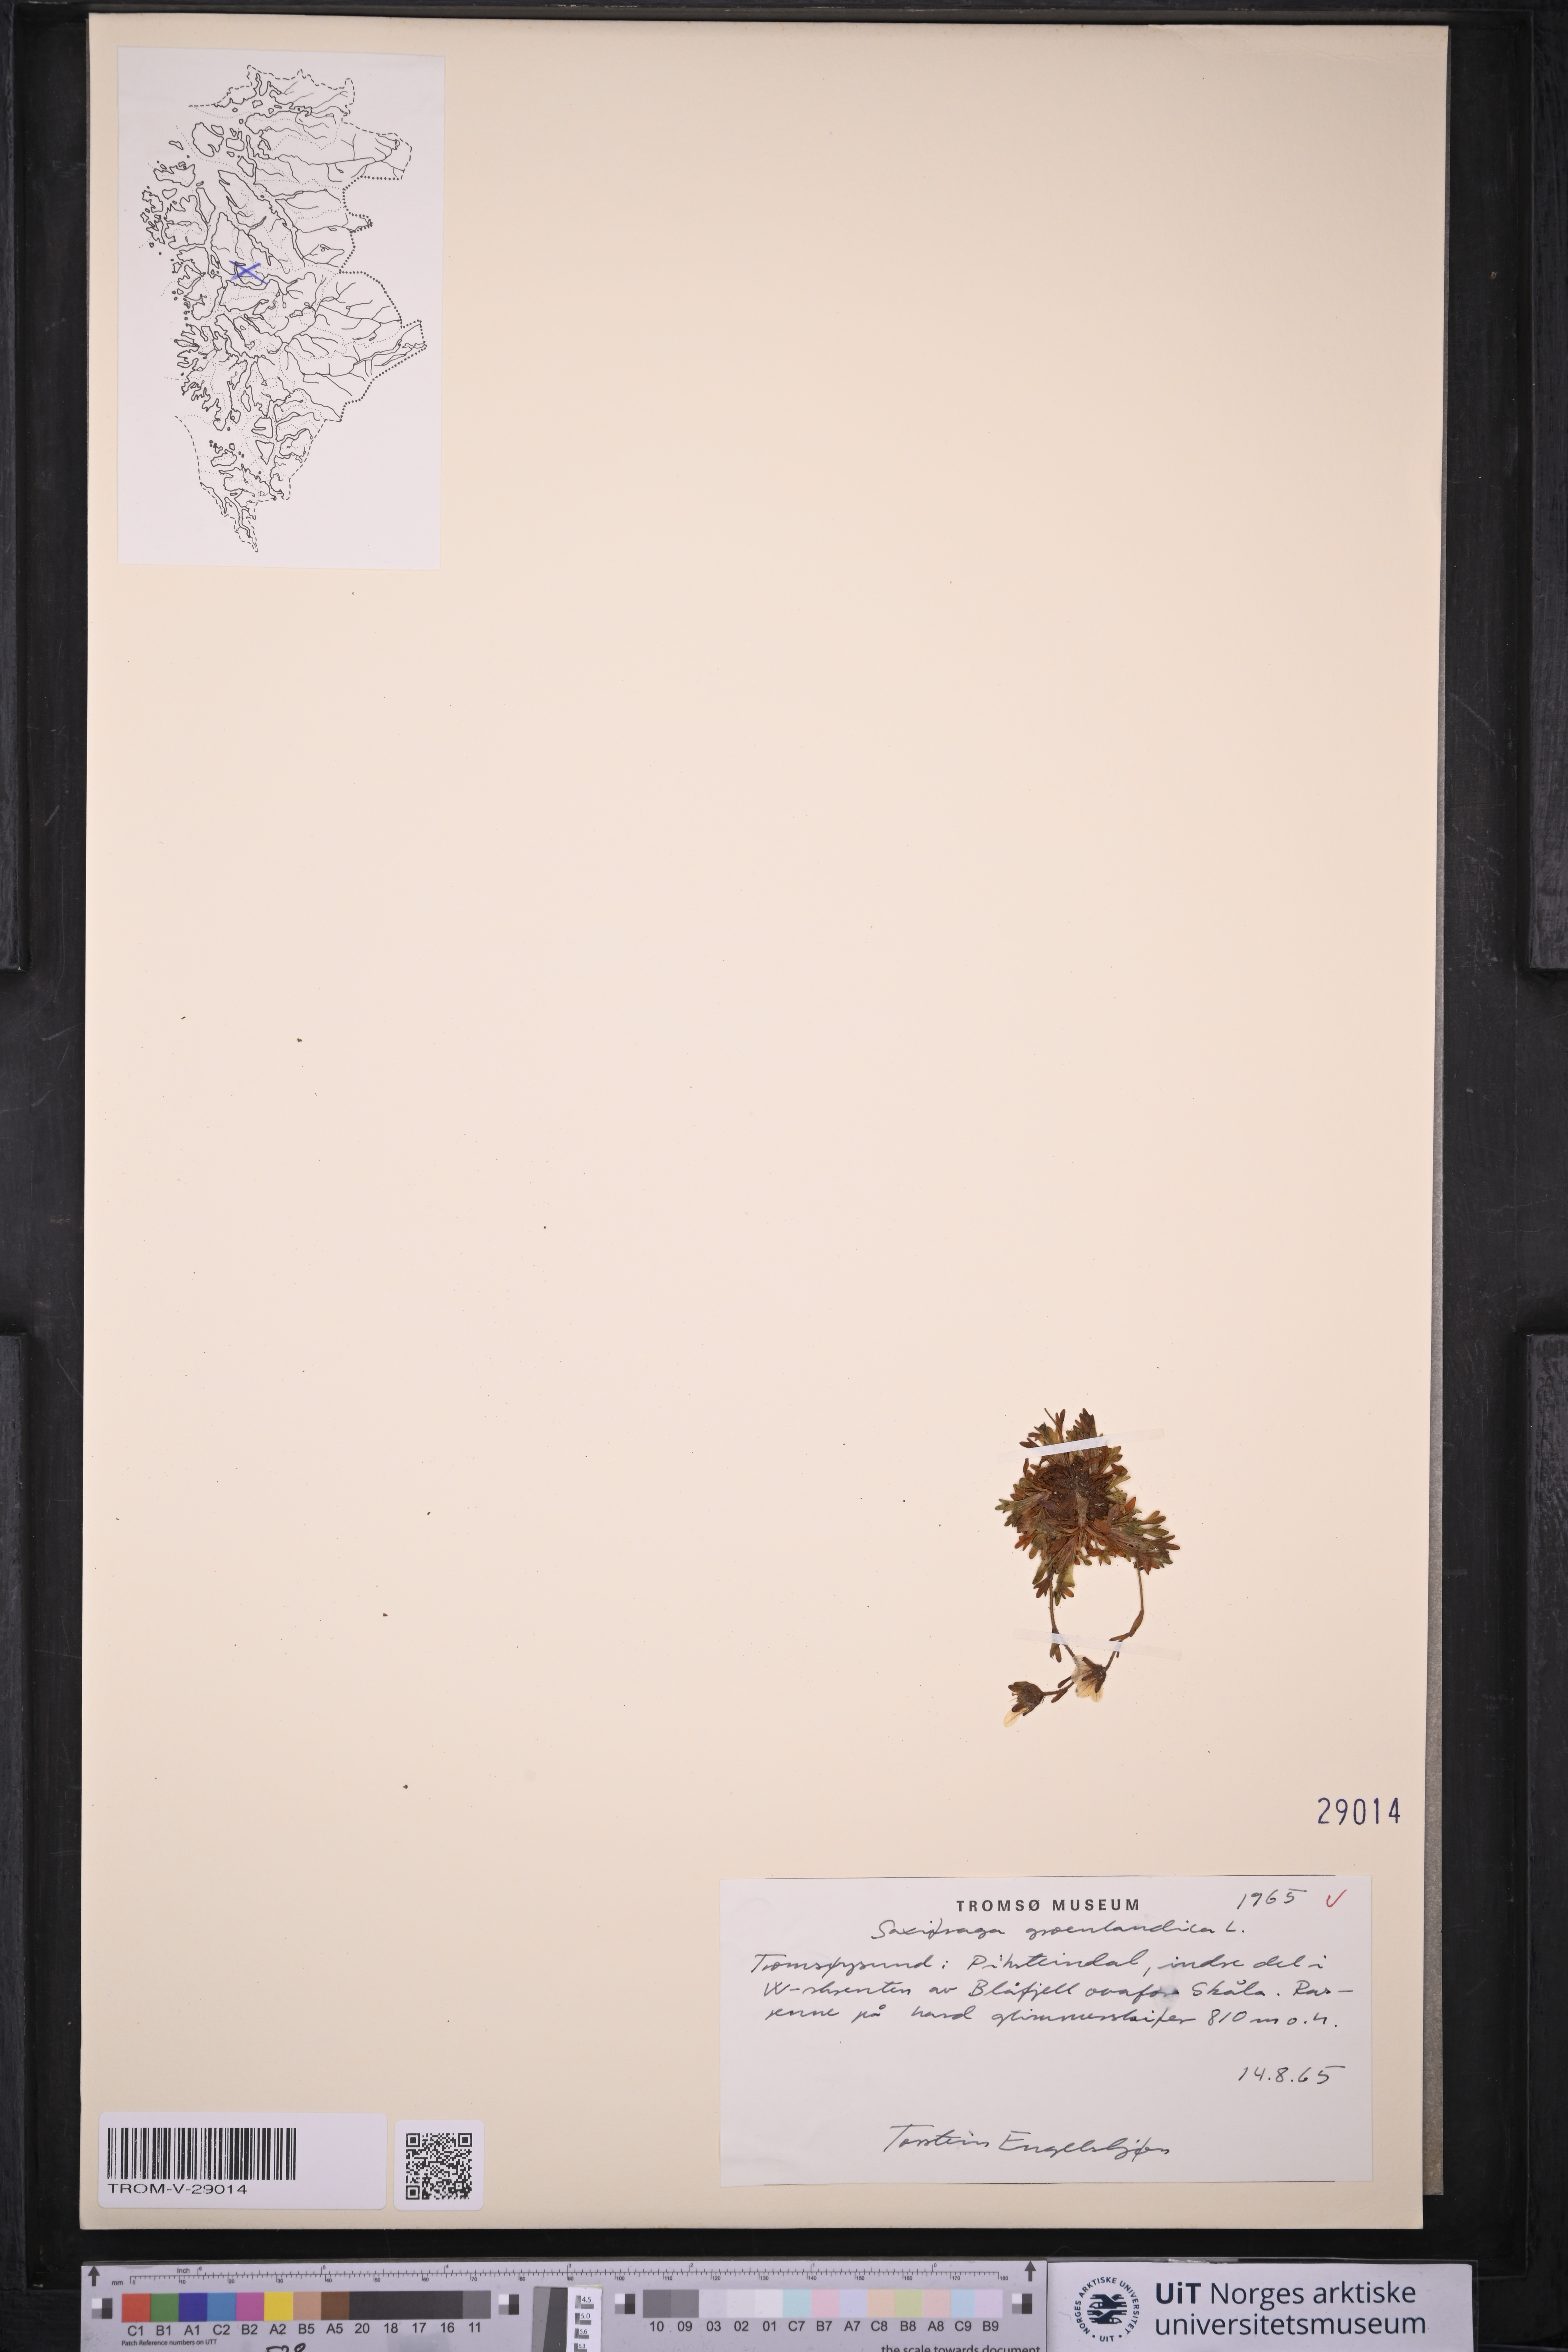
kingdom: Plantae
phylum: Tracheophyta
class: Magnoliopsida
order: Saxifragales
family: Saxifragaceae
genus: Saxifraga
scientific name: Saxifraga cespitosa
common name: Tufted saxifrage
